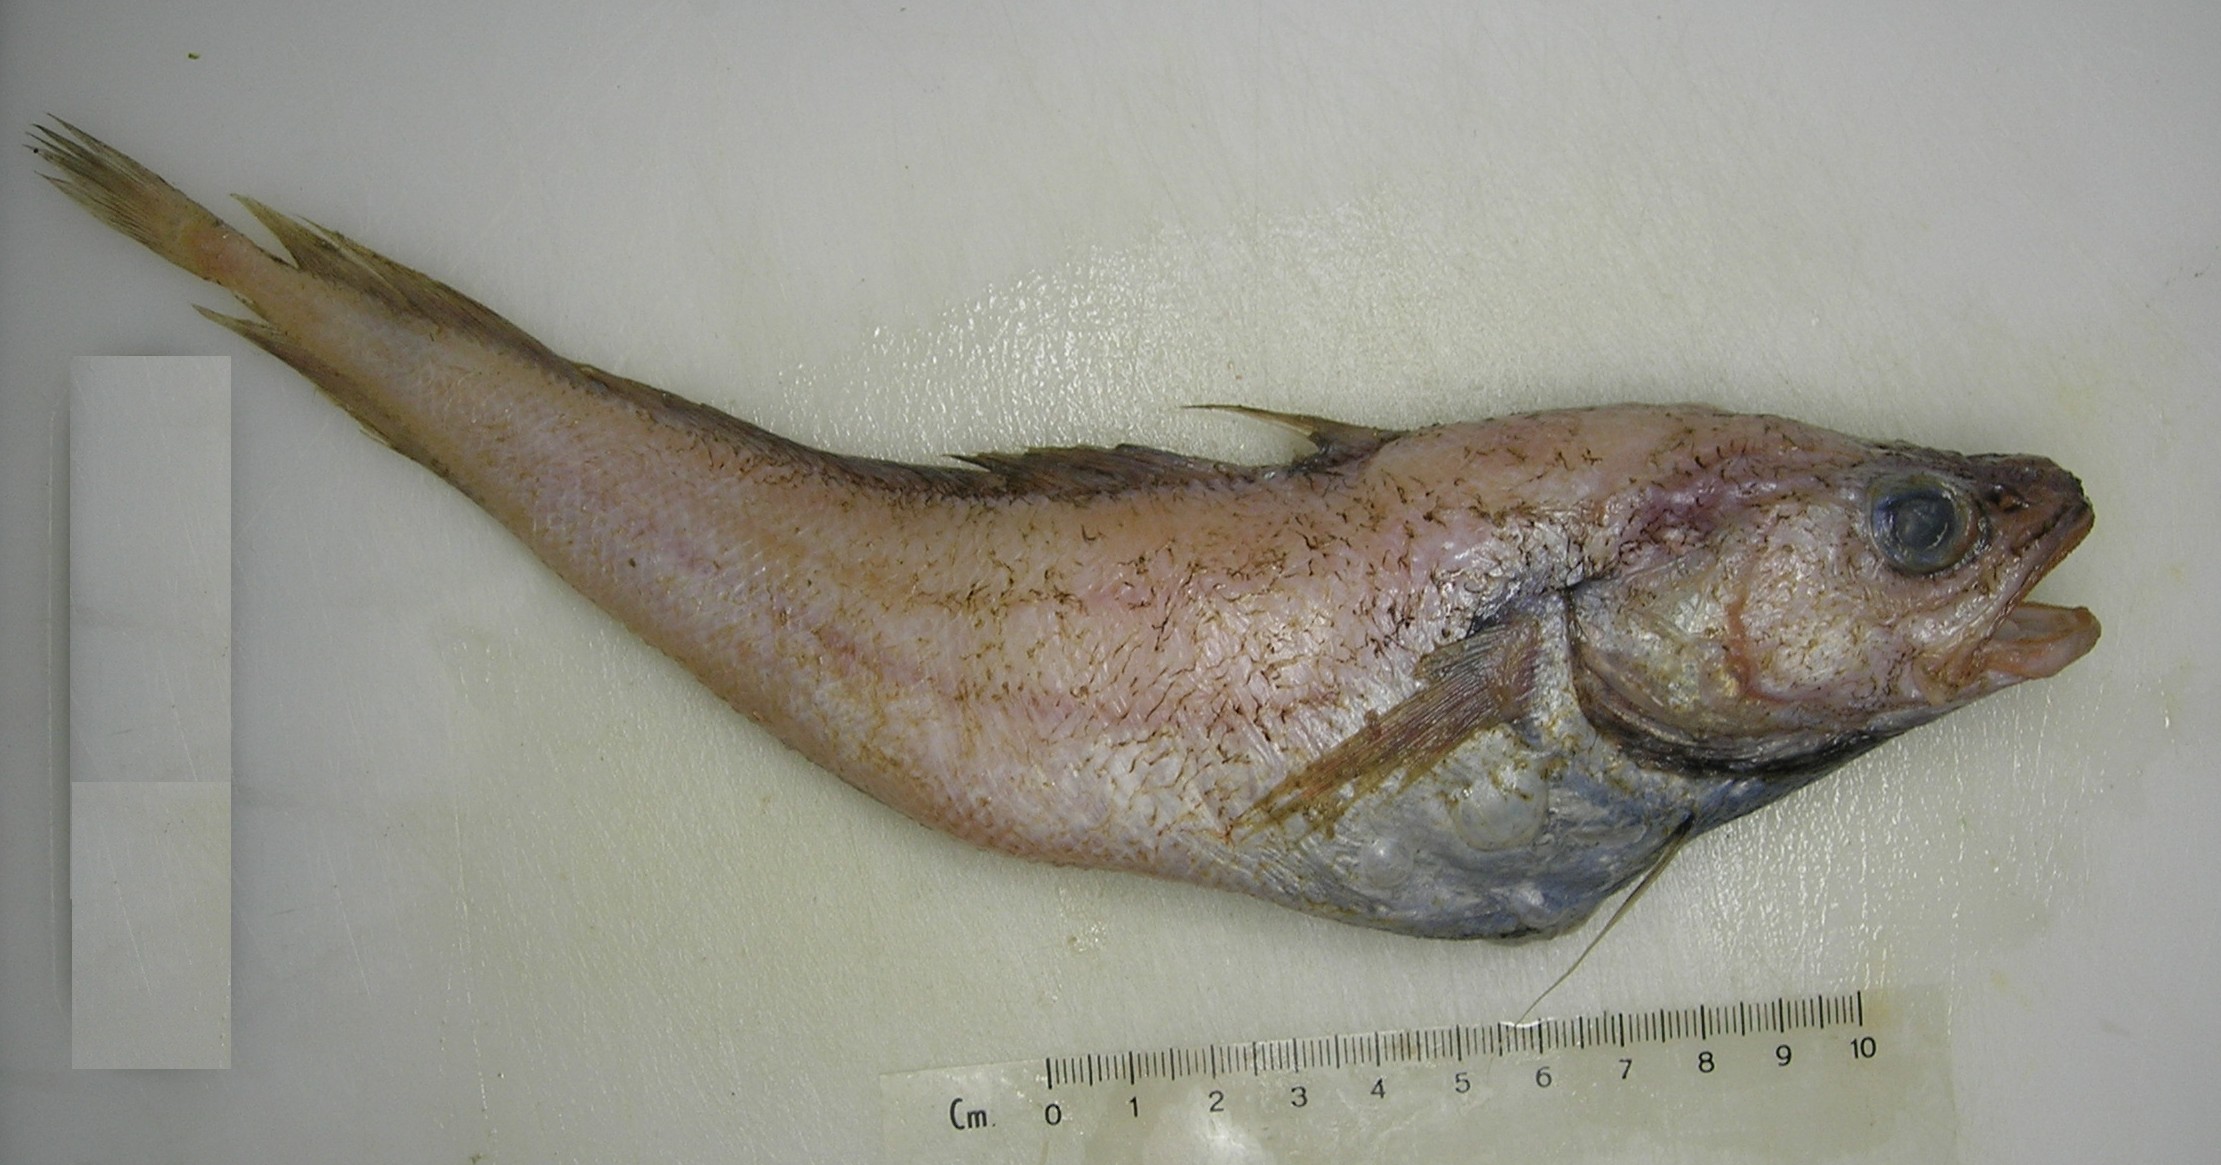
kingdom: Animalia
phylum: Chordata
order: Gadiformes
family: Moridae
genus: Physiculus
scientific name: Physiculus natalensis
